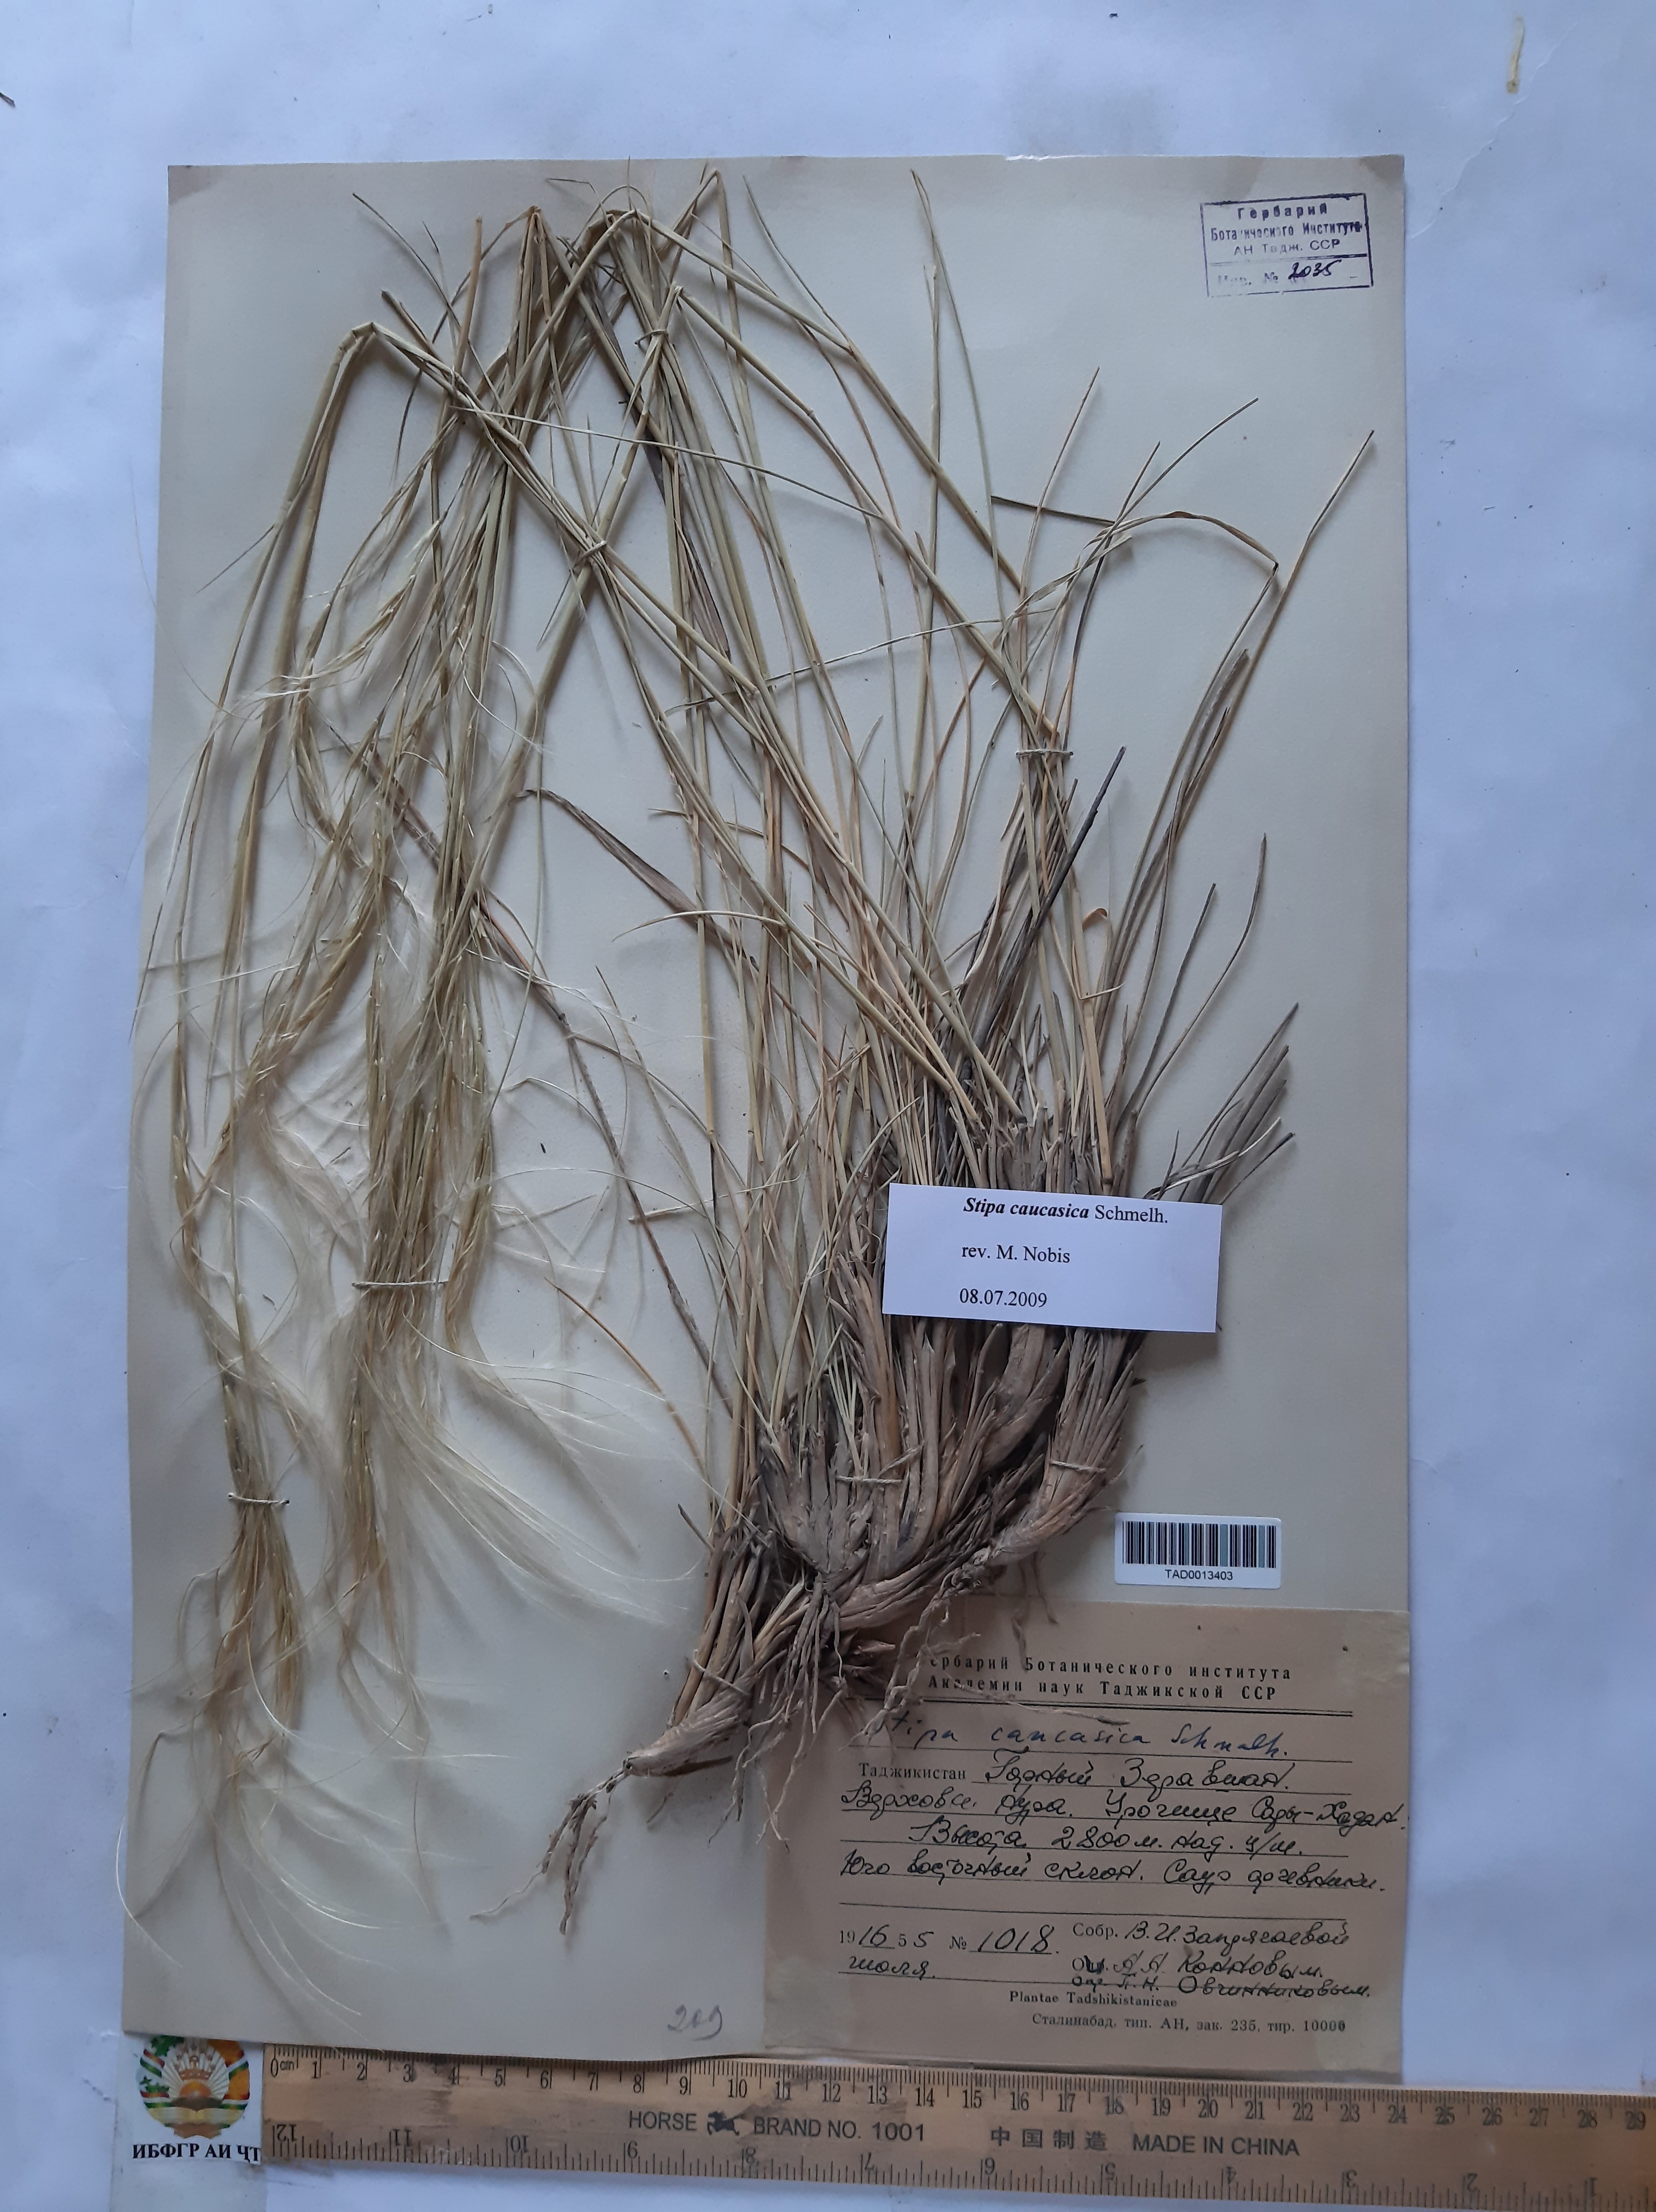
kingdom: Plantae
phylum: Tracheophyta
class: Liliopsida
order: Poales
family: Poaceae
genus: Stipa
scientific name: Stipa caucasica
